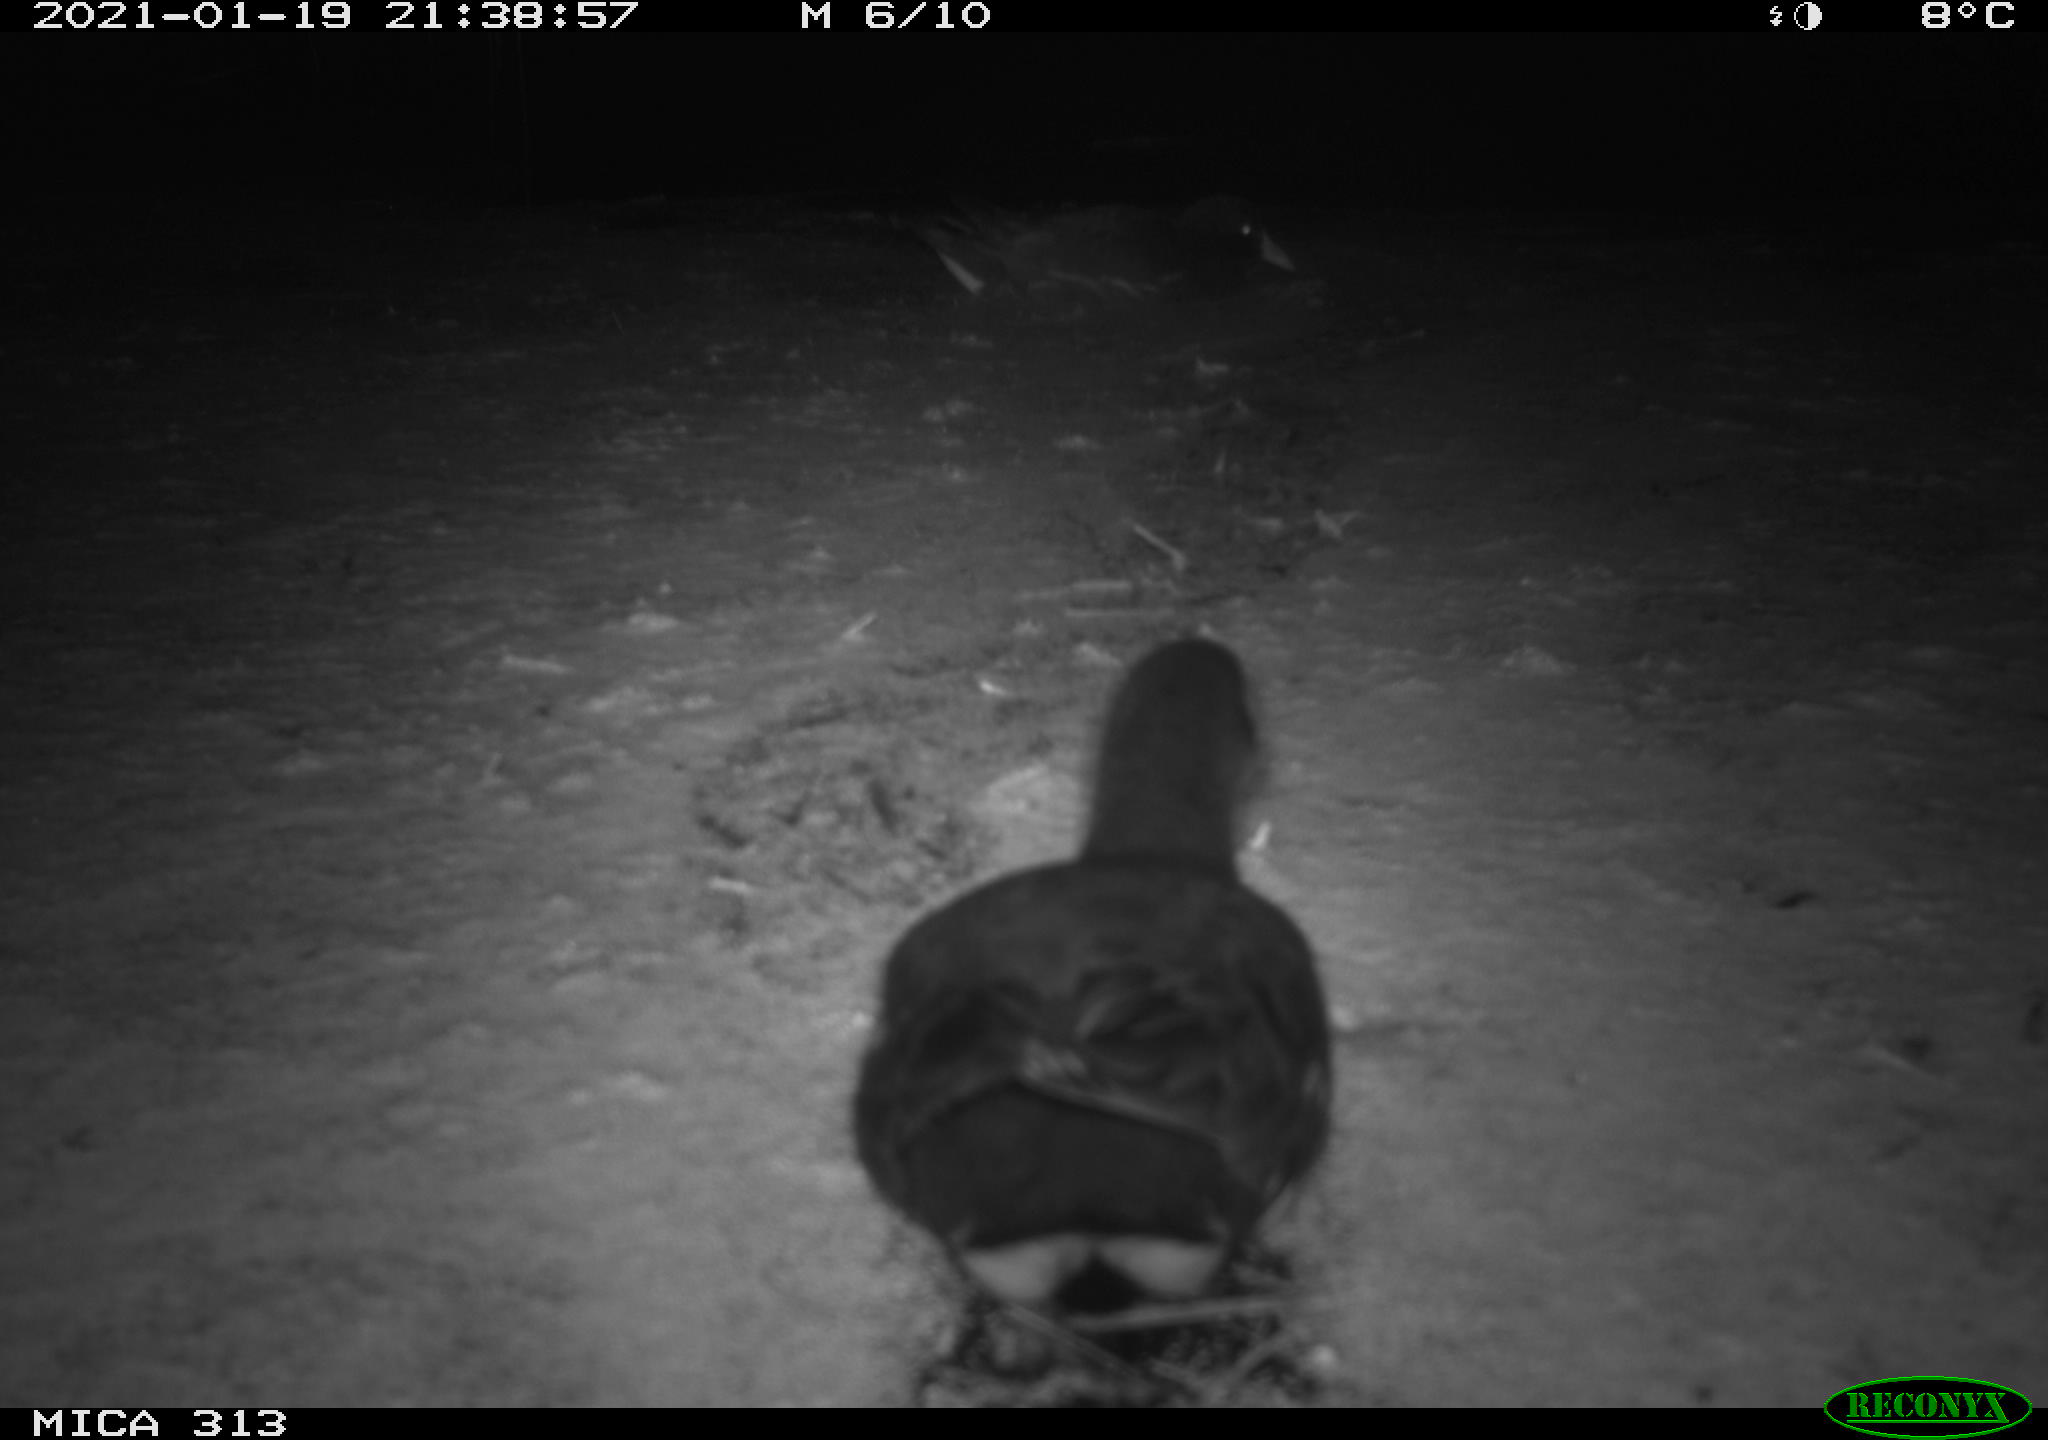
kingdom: Animalia
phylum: Chordata
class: Aves
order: Gruiformes
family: Rallidae
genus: Fulica
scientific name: Fulica atra
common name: Eurasian coot
